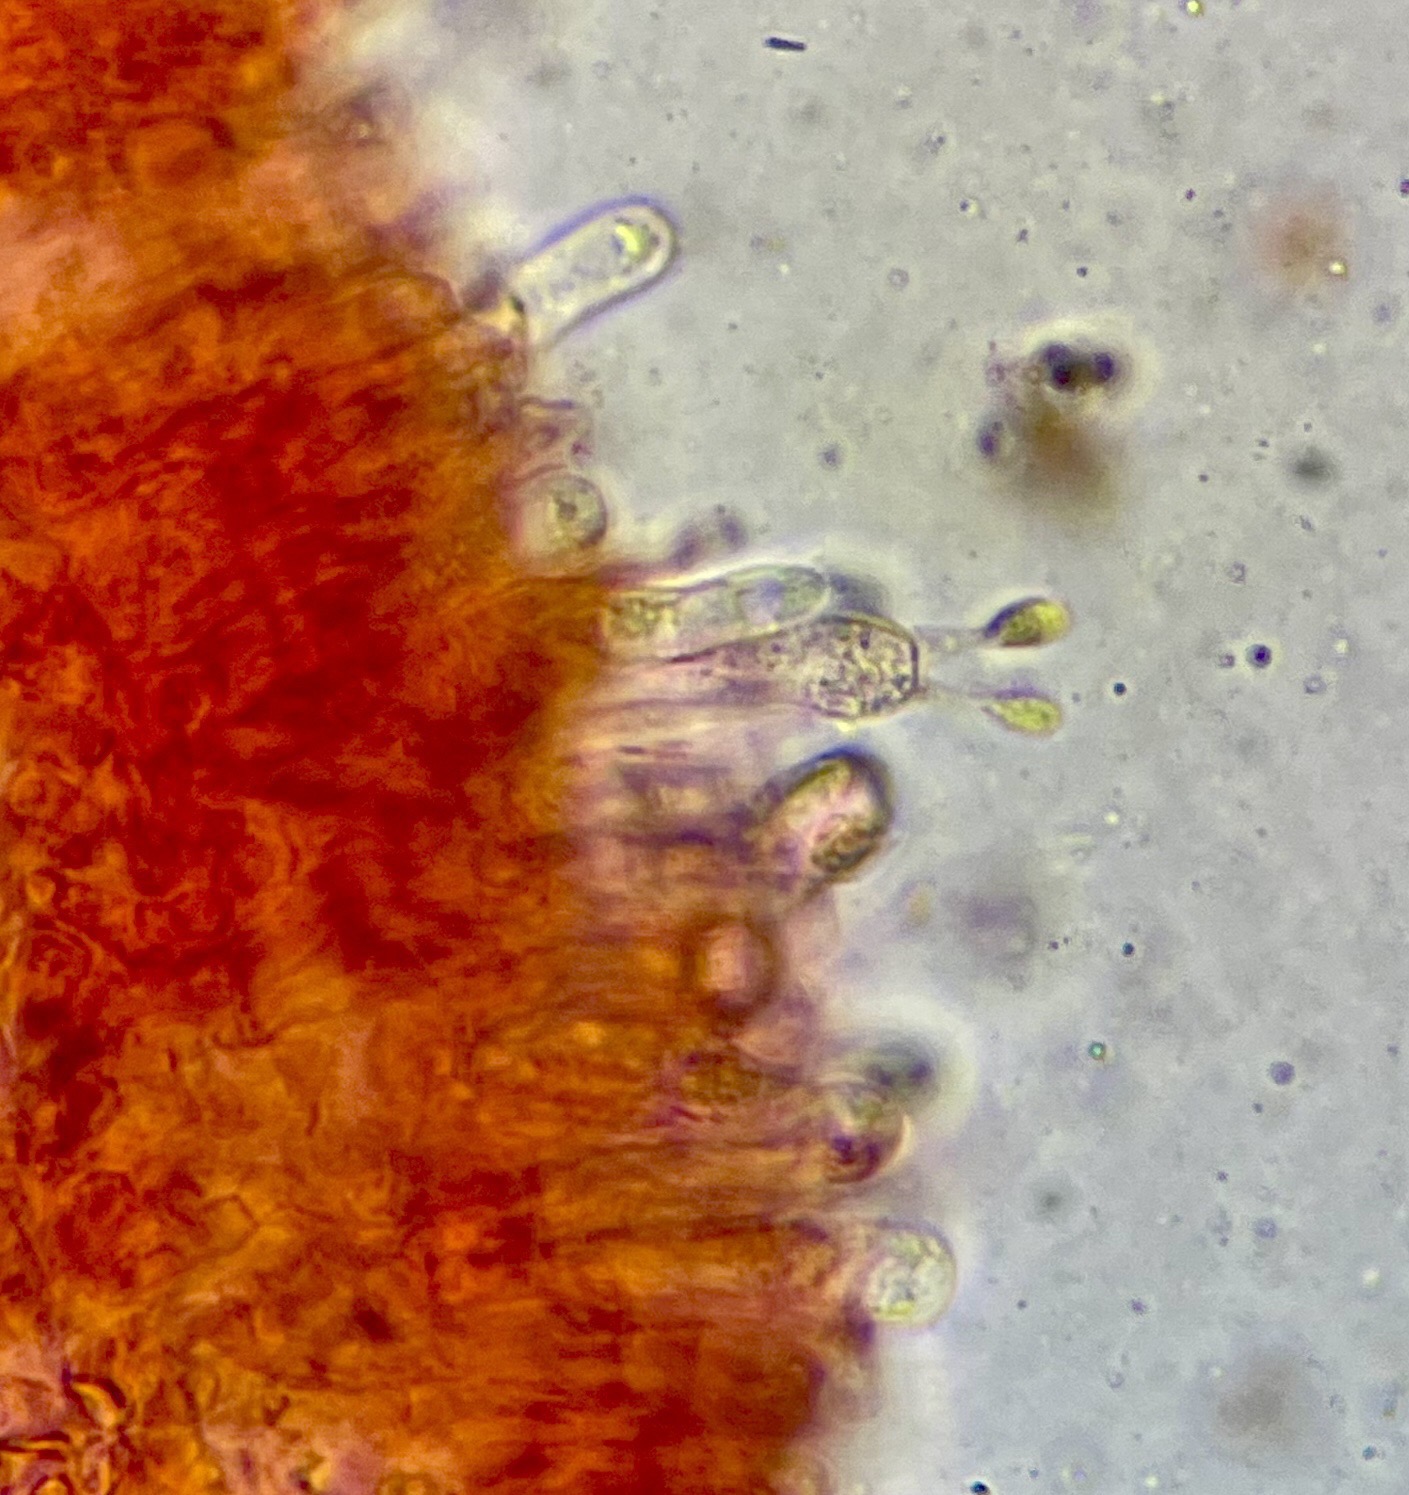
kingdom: Fungi
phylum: Basidiomycota
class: Agaricomycetes
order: Agaricales
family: Mycenaceae
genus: Hemimycena
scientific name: Hemimycena cucullata
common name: tætbladet huesvamp
